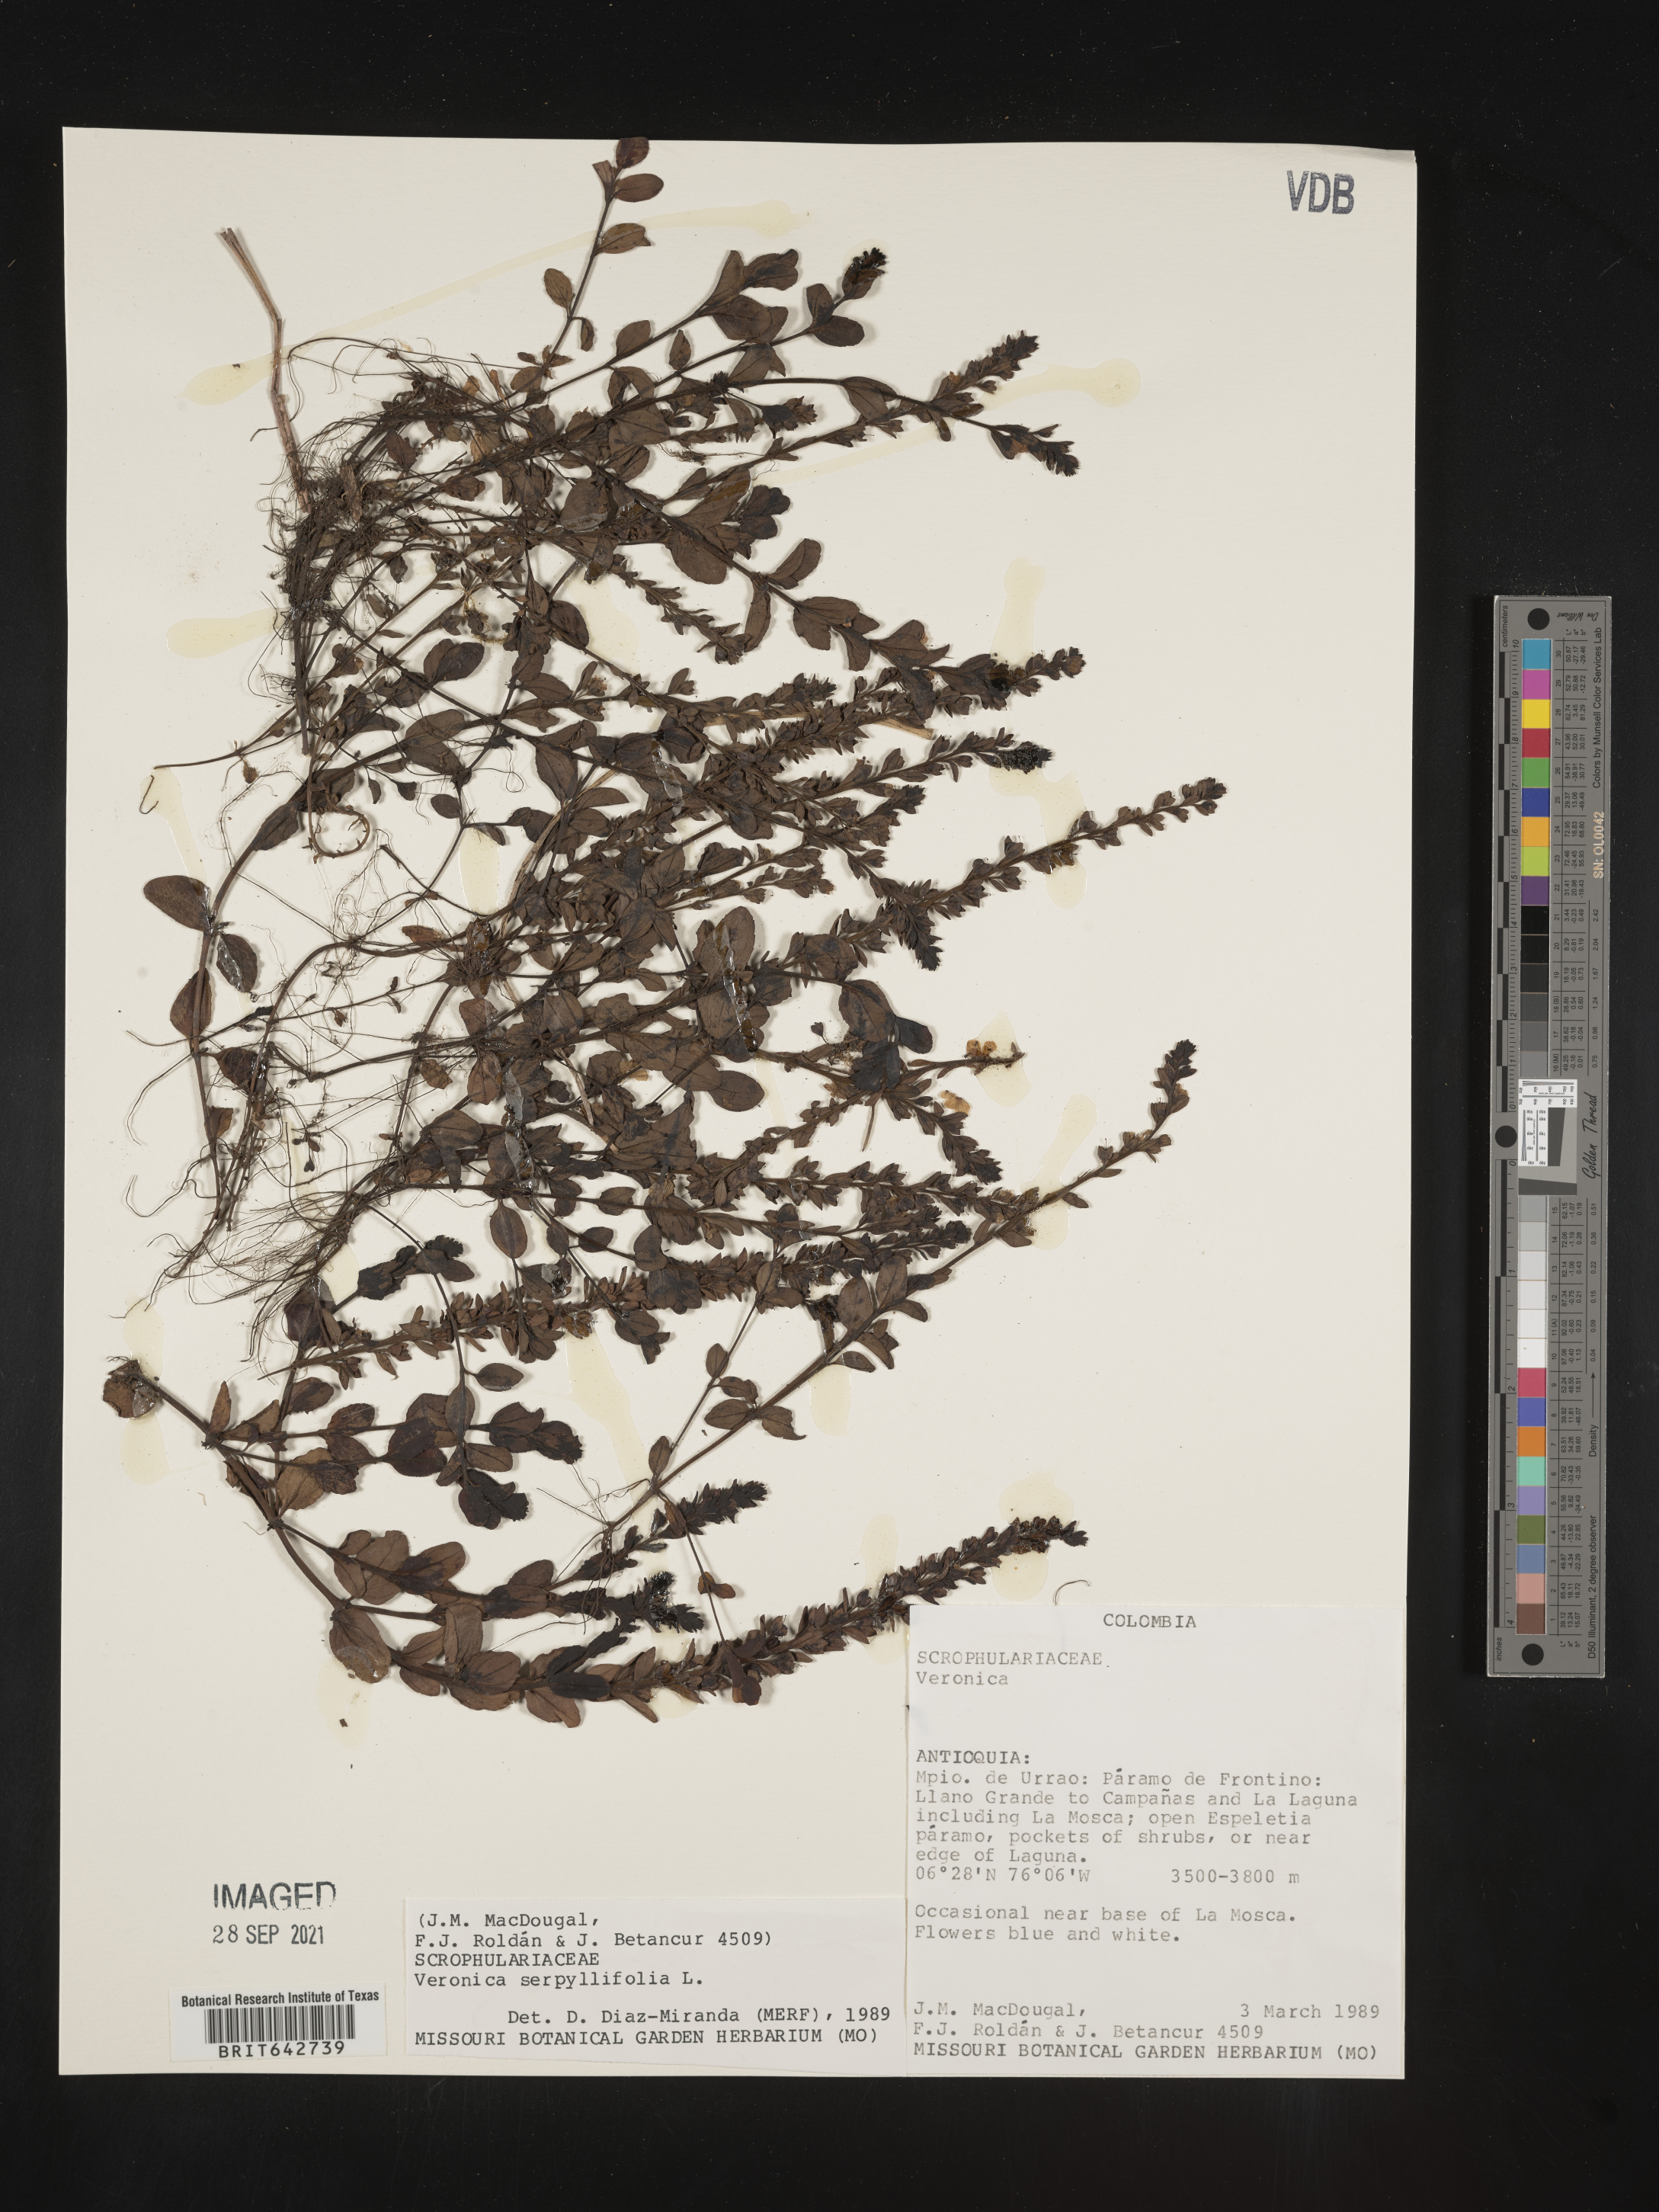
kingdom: Plantae
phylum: Tracheophyta
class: Magnoliopsida
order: Lamiales
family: Plantaginaceae
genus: Veronica
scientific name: Veronica
